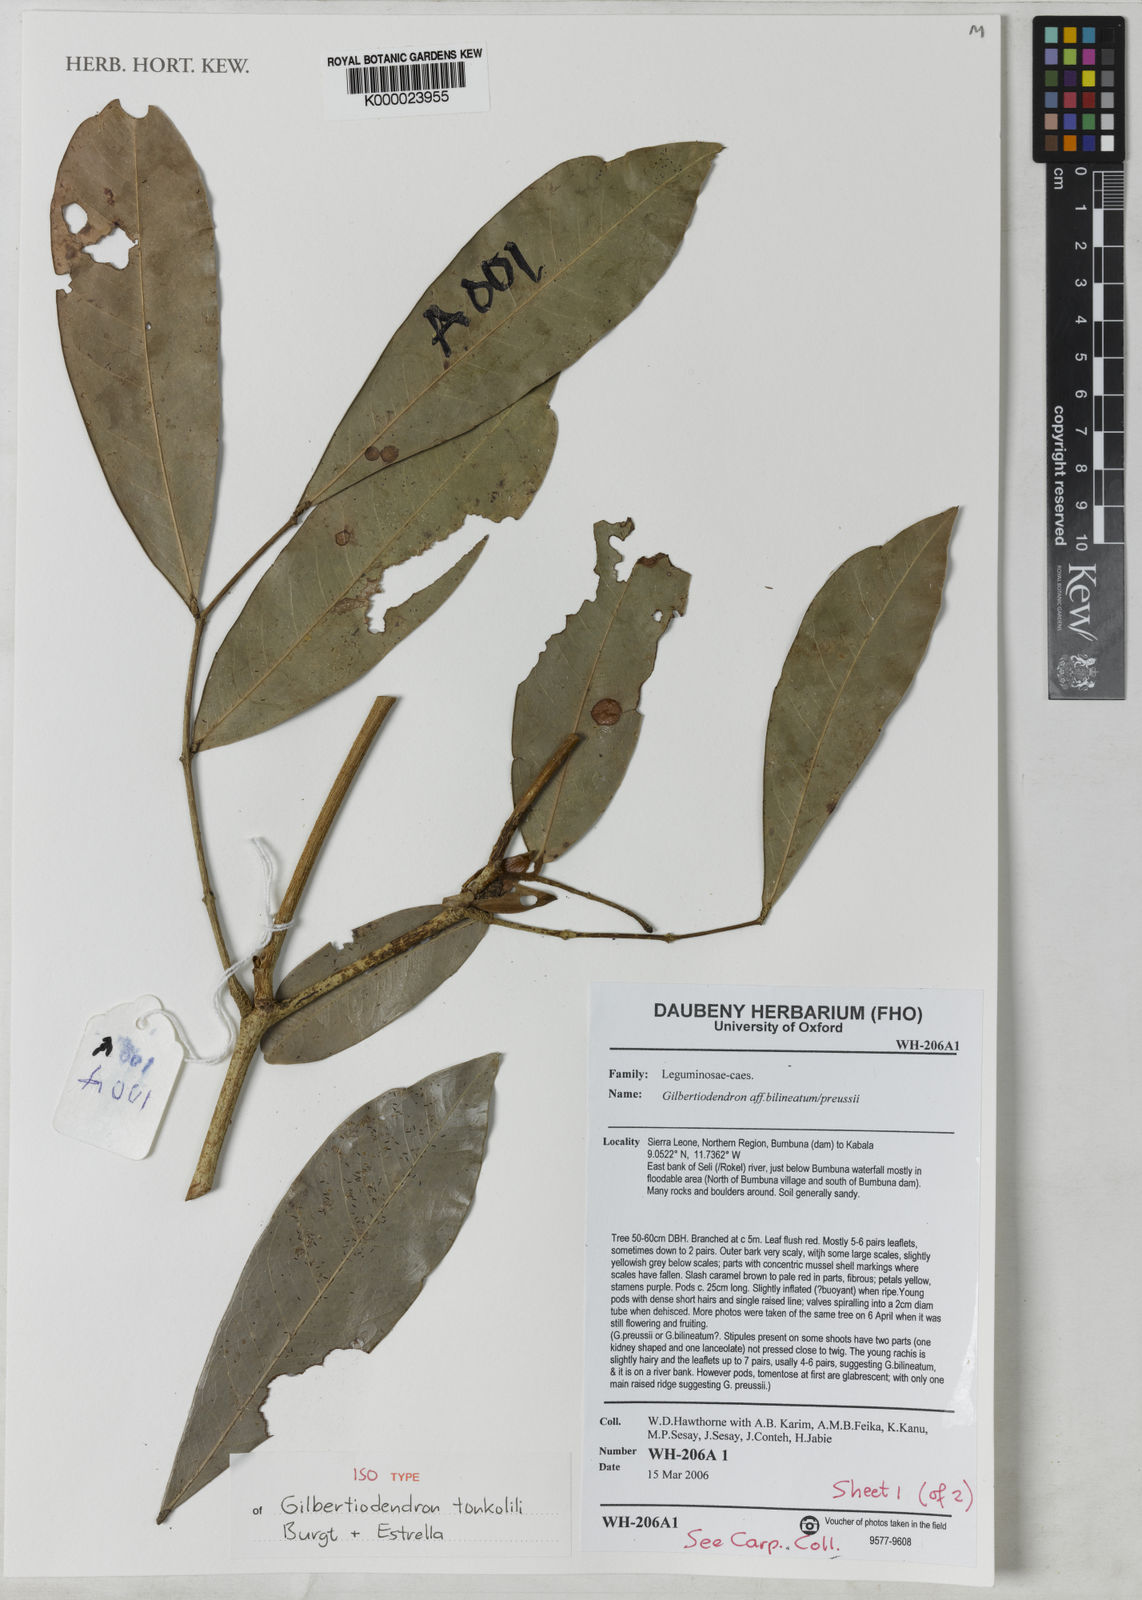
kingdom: Plantae
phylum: Tracheophyta
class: Magnoliopsida
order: Fabales
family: Fabaceae
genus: Gilbertiodendron
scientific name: Gilbertiodendron tonkolili
